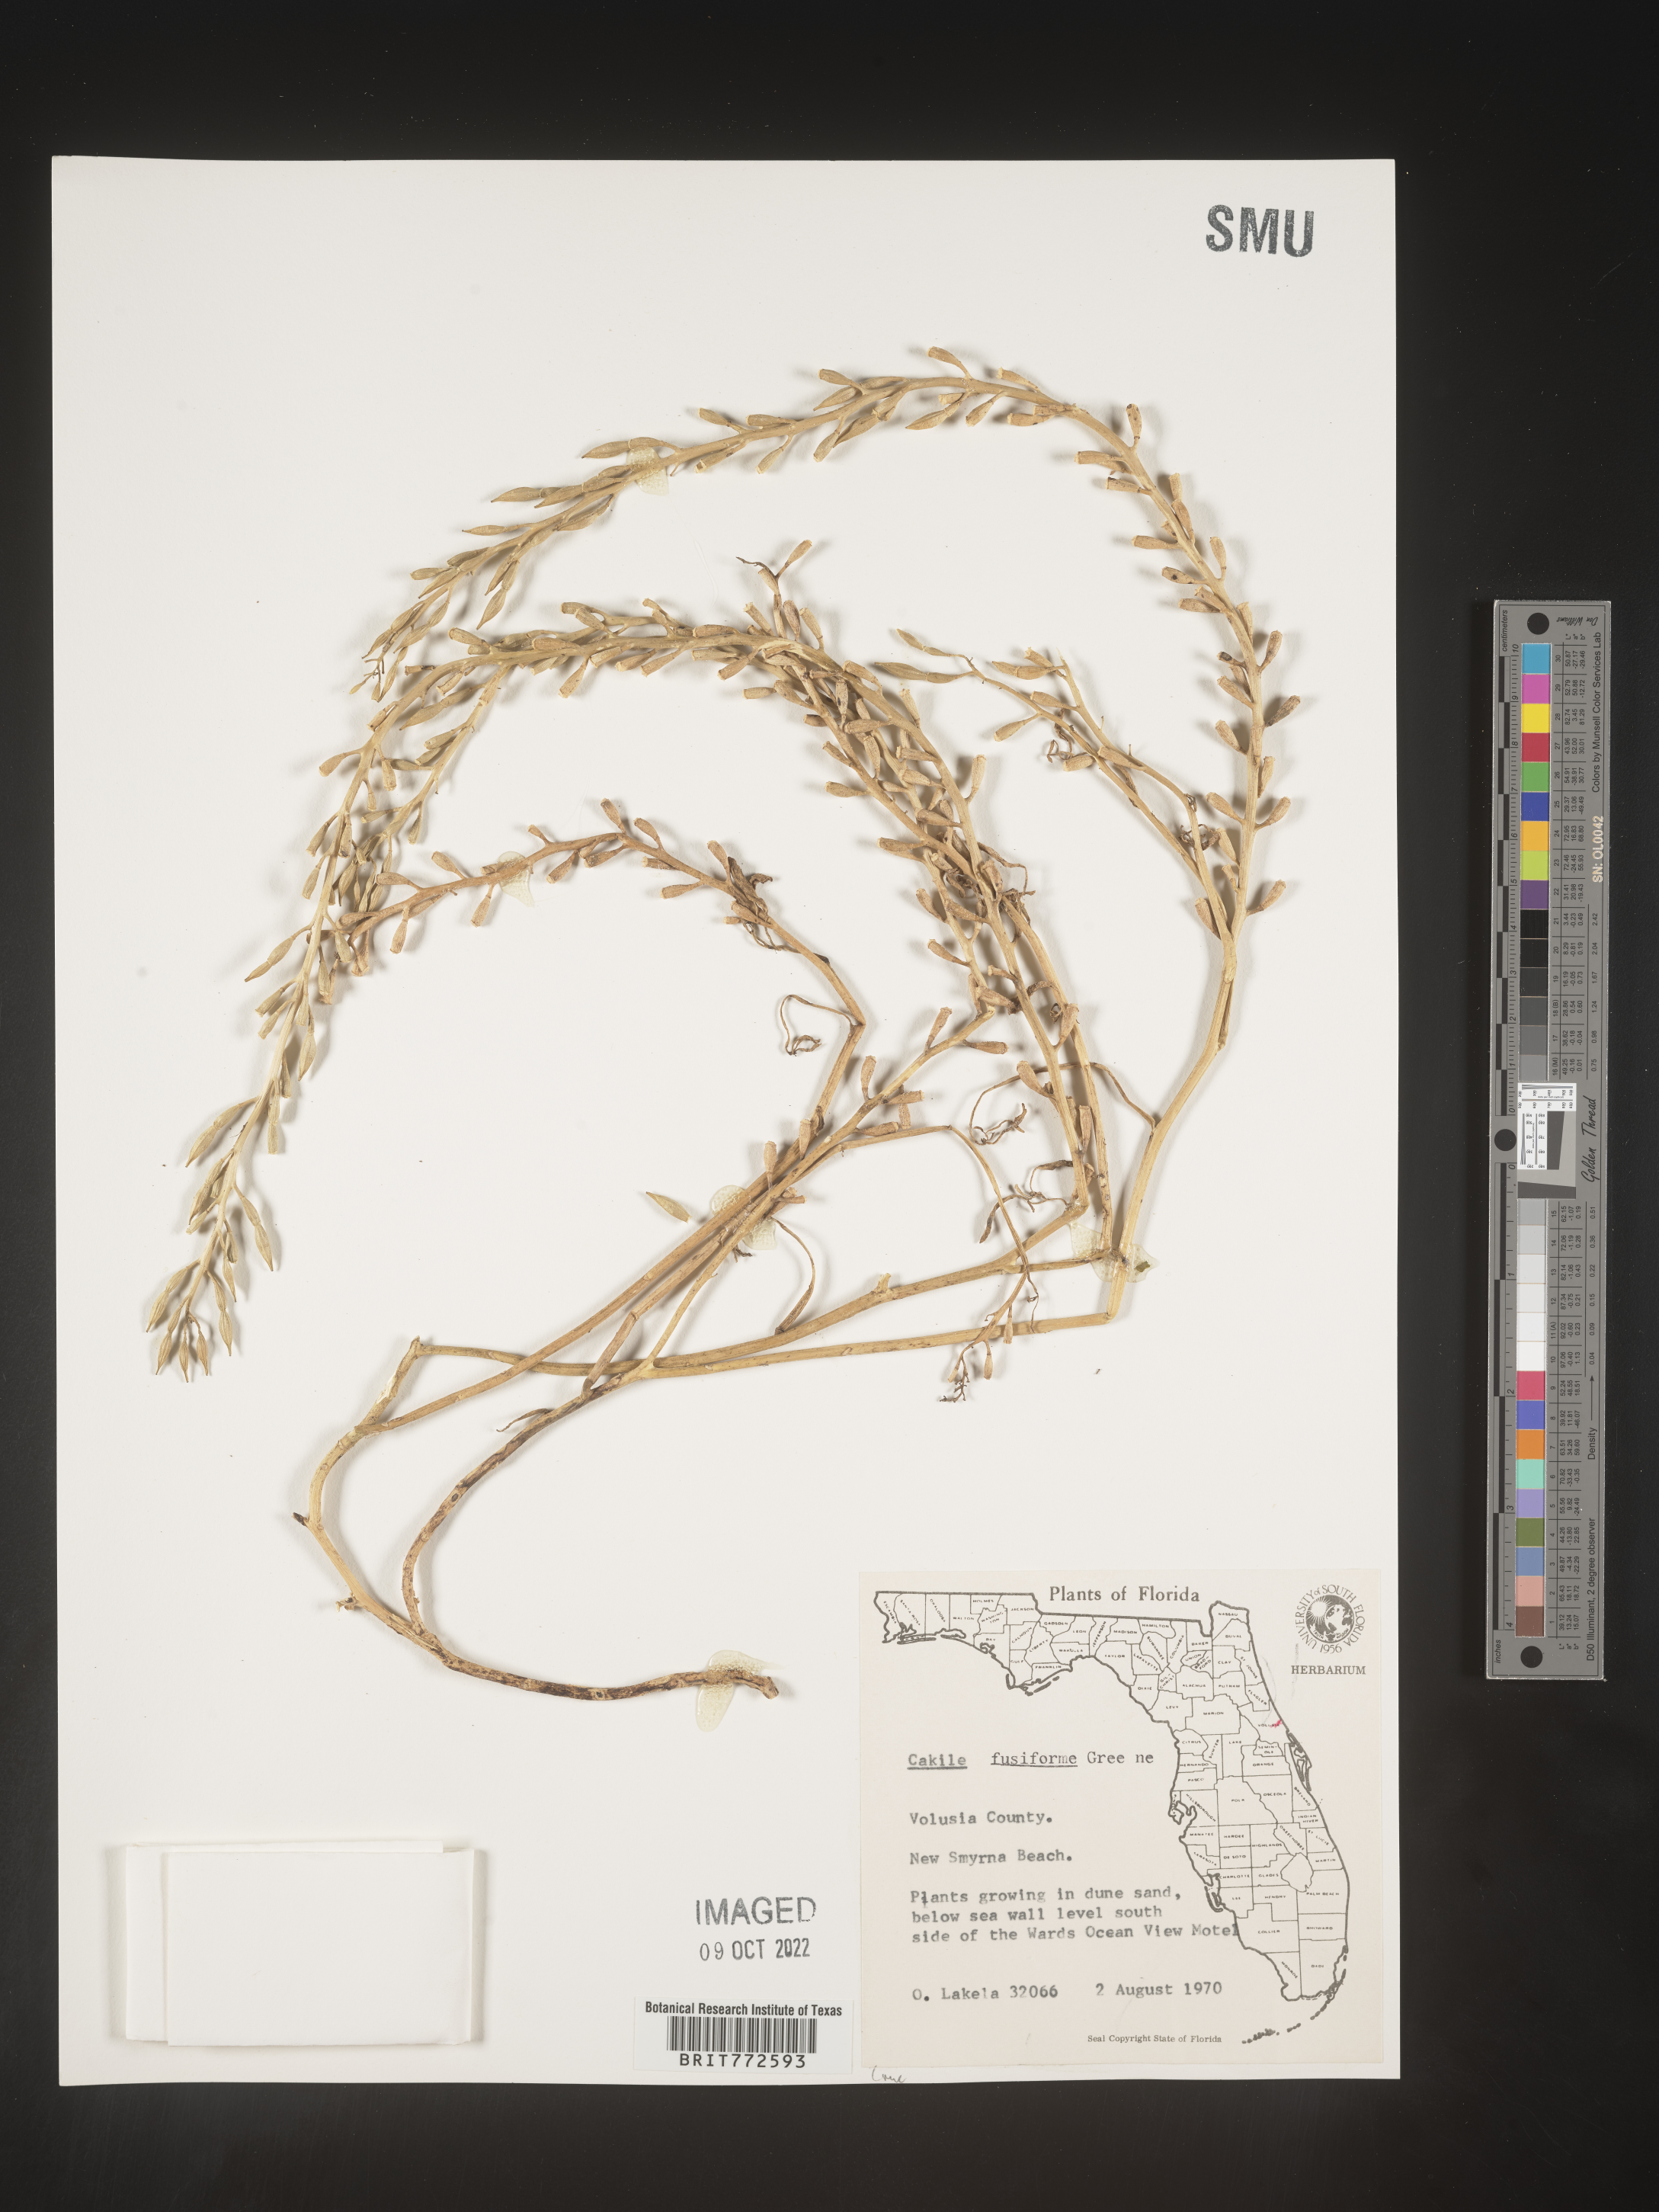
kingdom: Plantae
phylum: Tracheophyta
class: Magnoliopsida
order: Brassicales
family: Brassicaceae
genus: Cakile
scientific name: Cakile lanceolata
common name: Sea rocket
